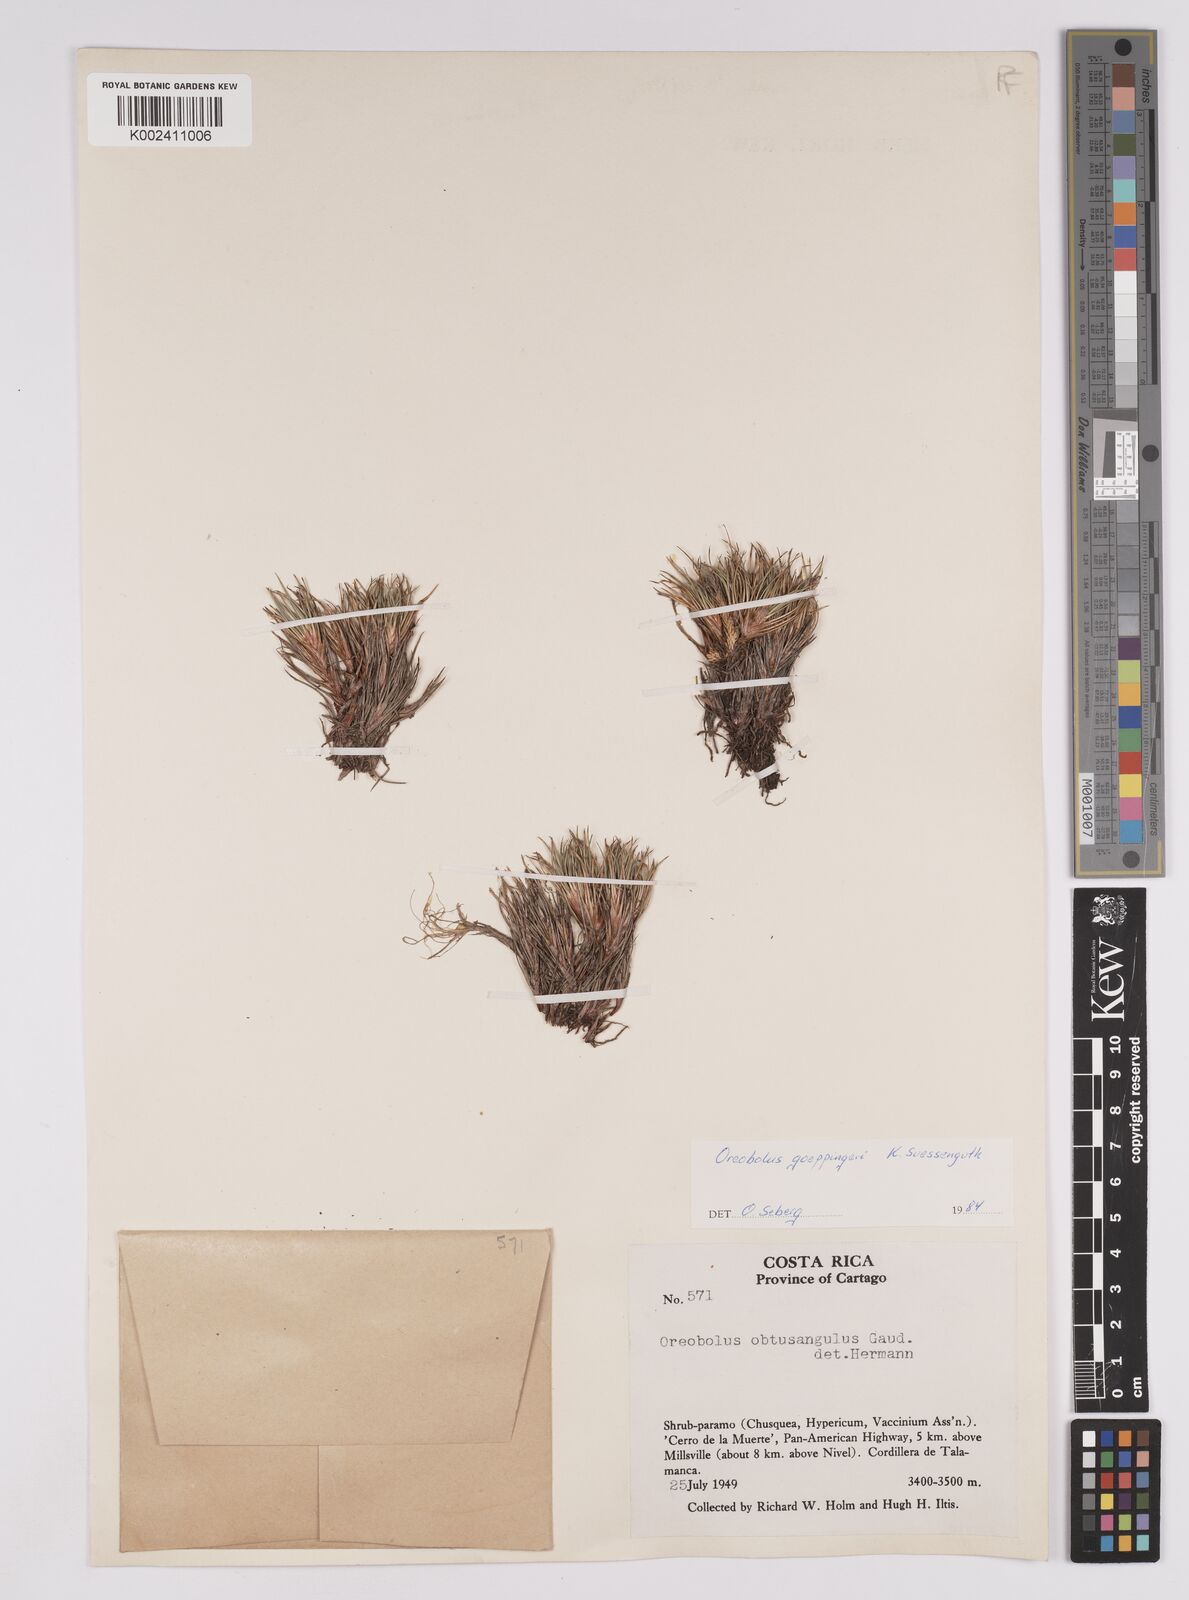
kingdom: Plantae
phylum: Tracheophyta
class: Liliopsida
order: Poales
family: Cyperaceae
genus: Oreobolus
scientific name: Oreobolus goeppingeri
